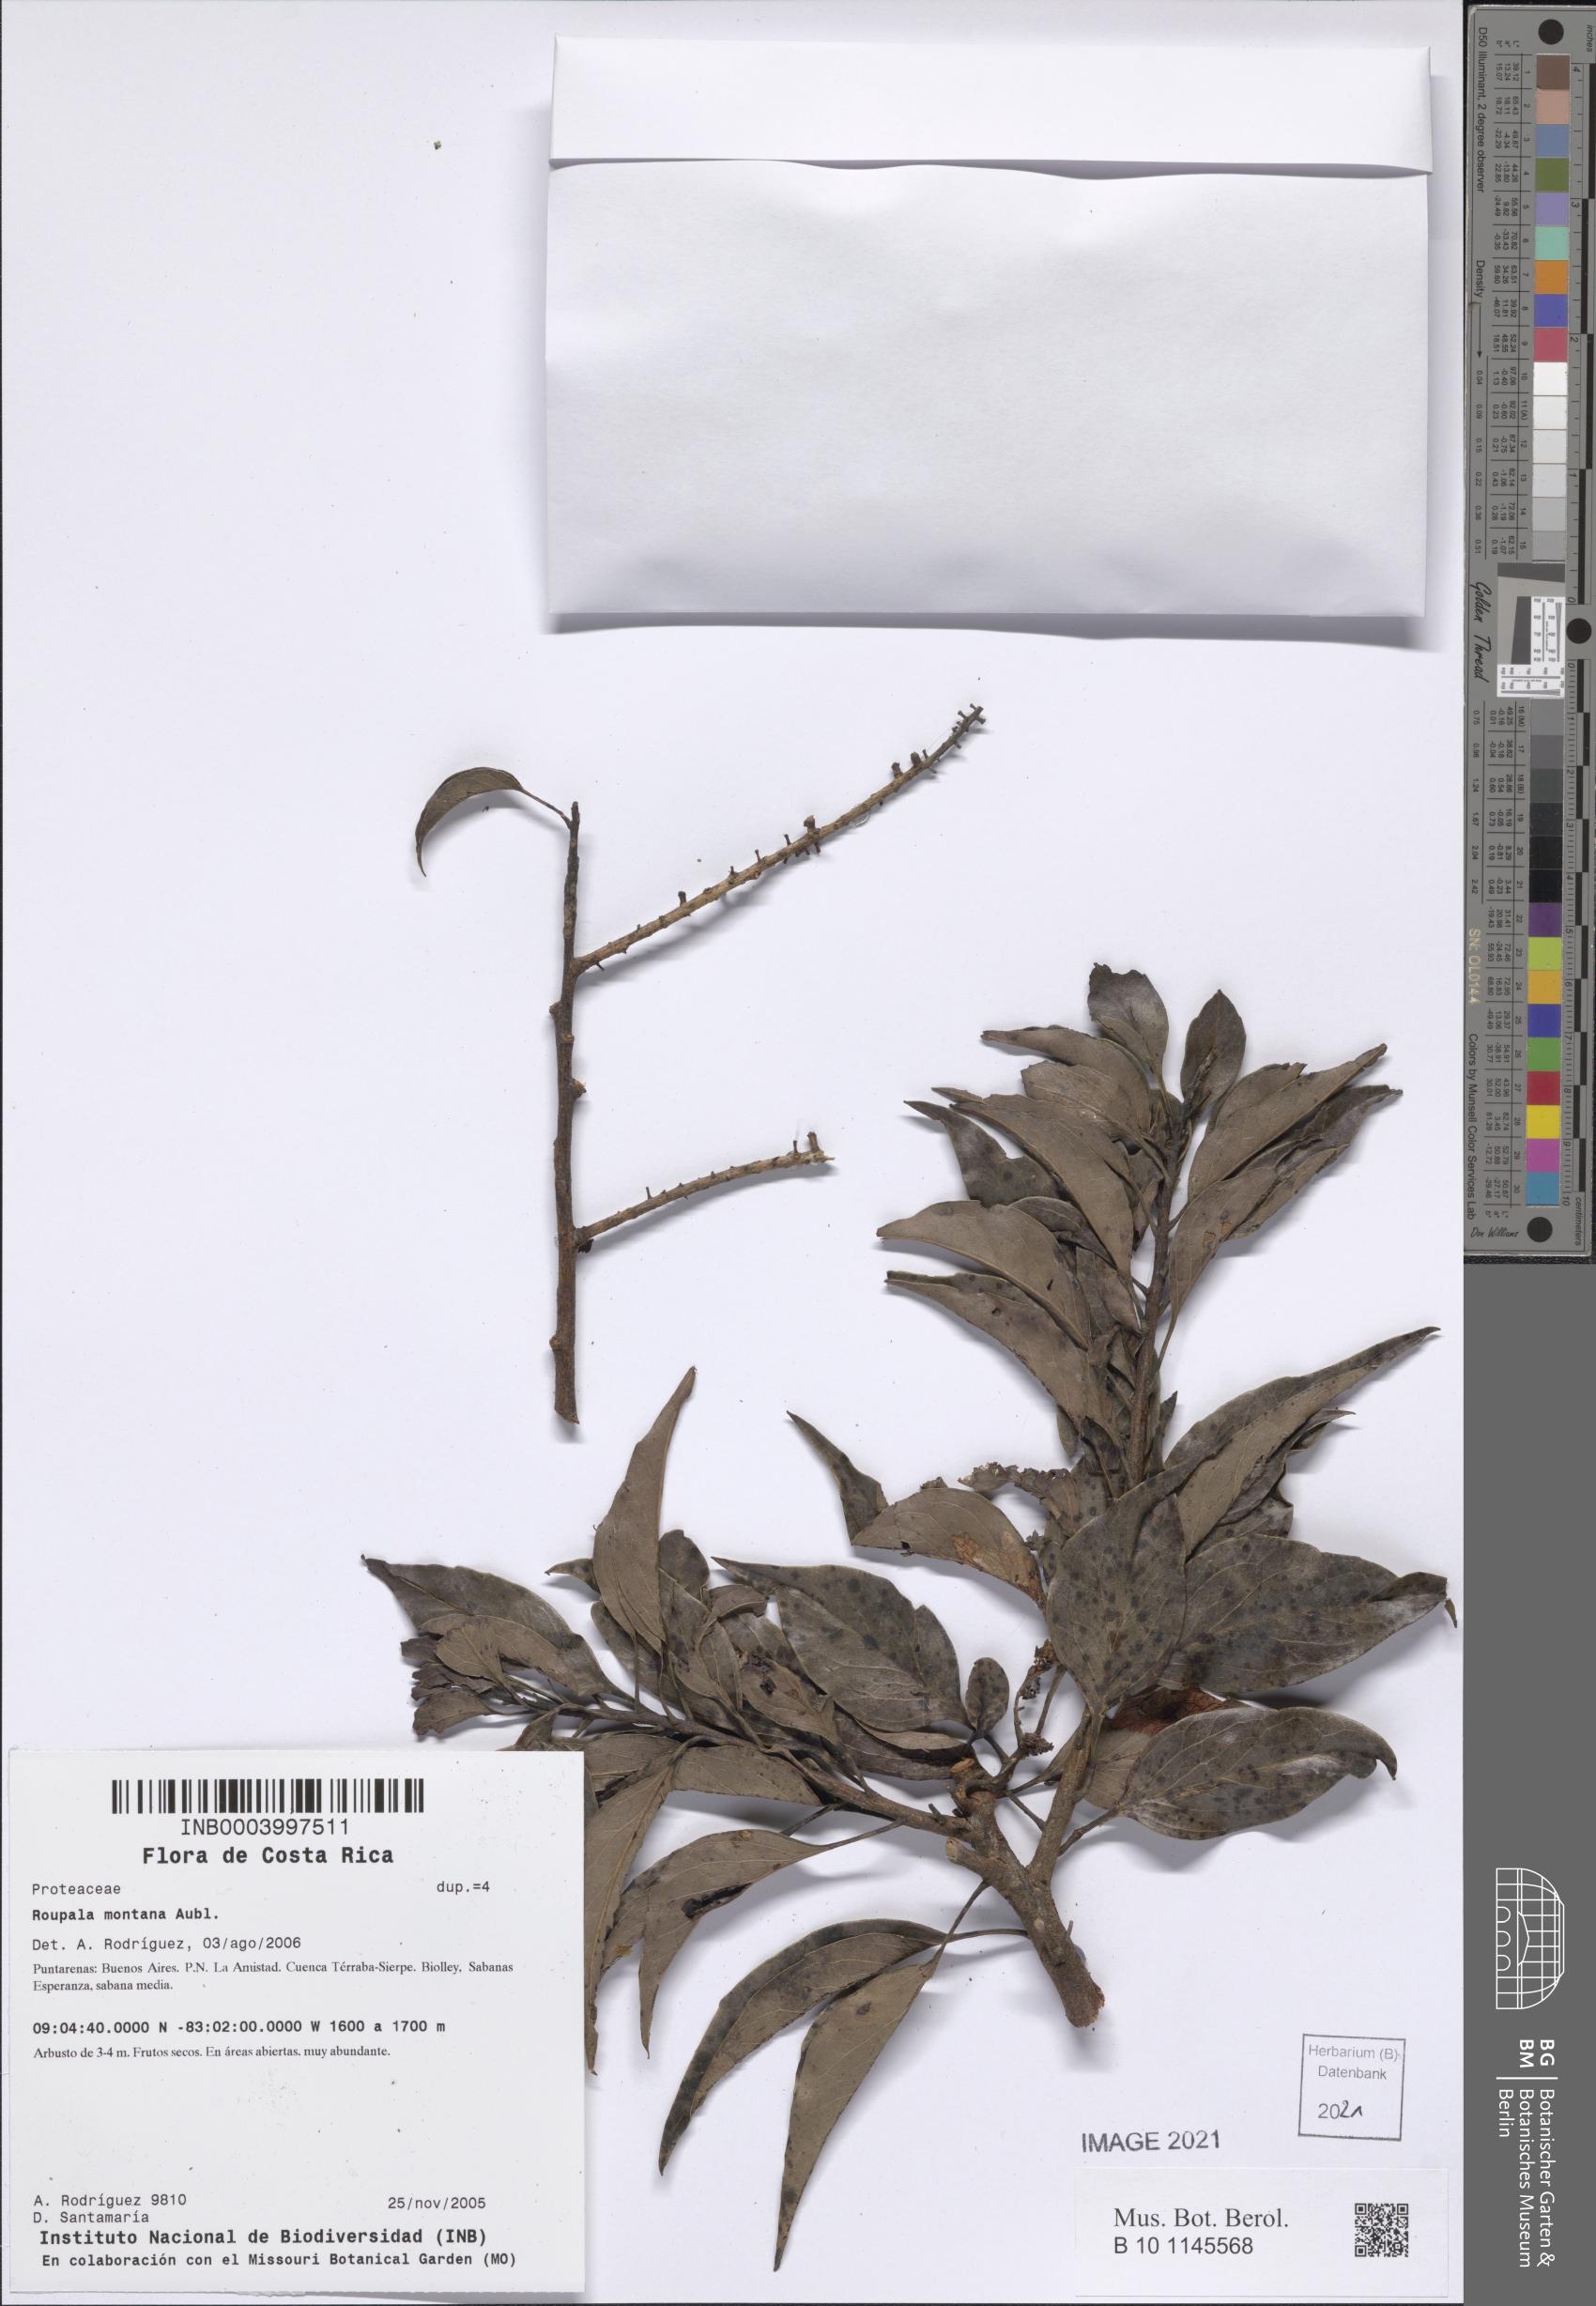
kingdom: Plantae
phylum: Tracheophyta
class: Magnoliopsida
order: Proteales
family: Proteaceae
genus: Roupala
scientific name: Roupala montana
